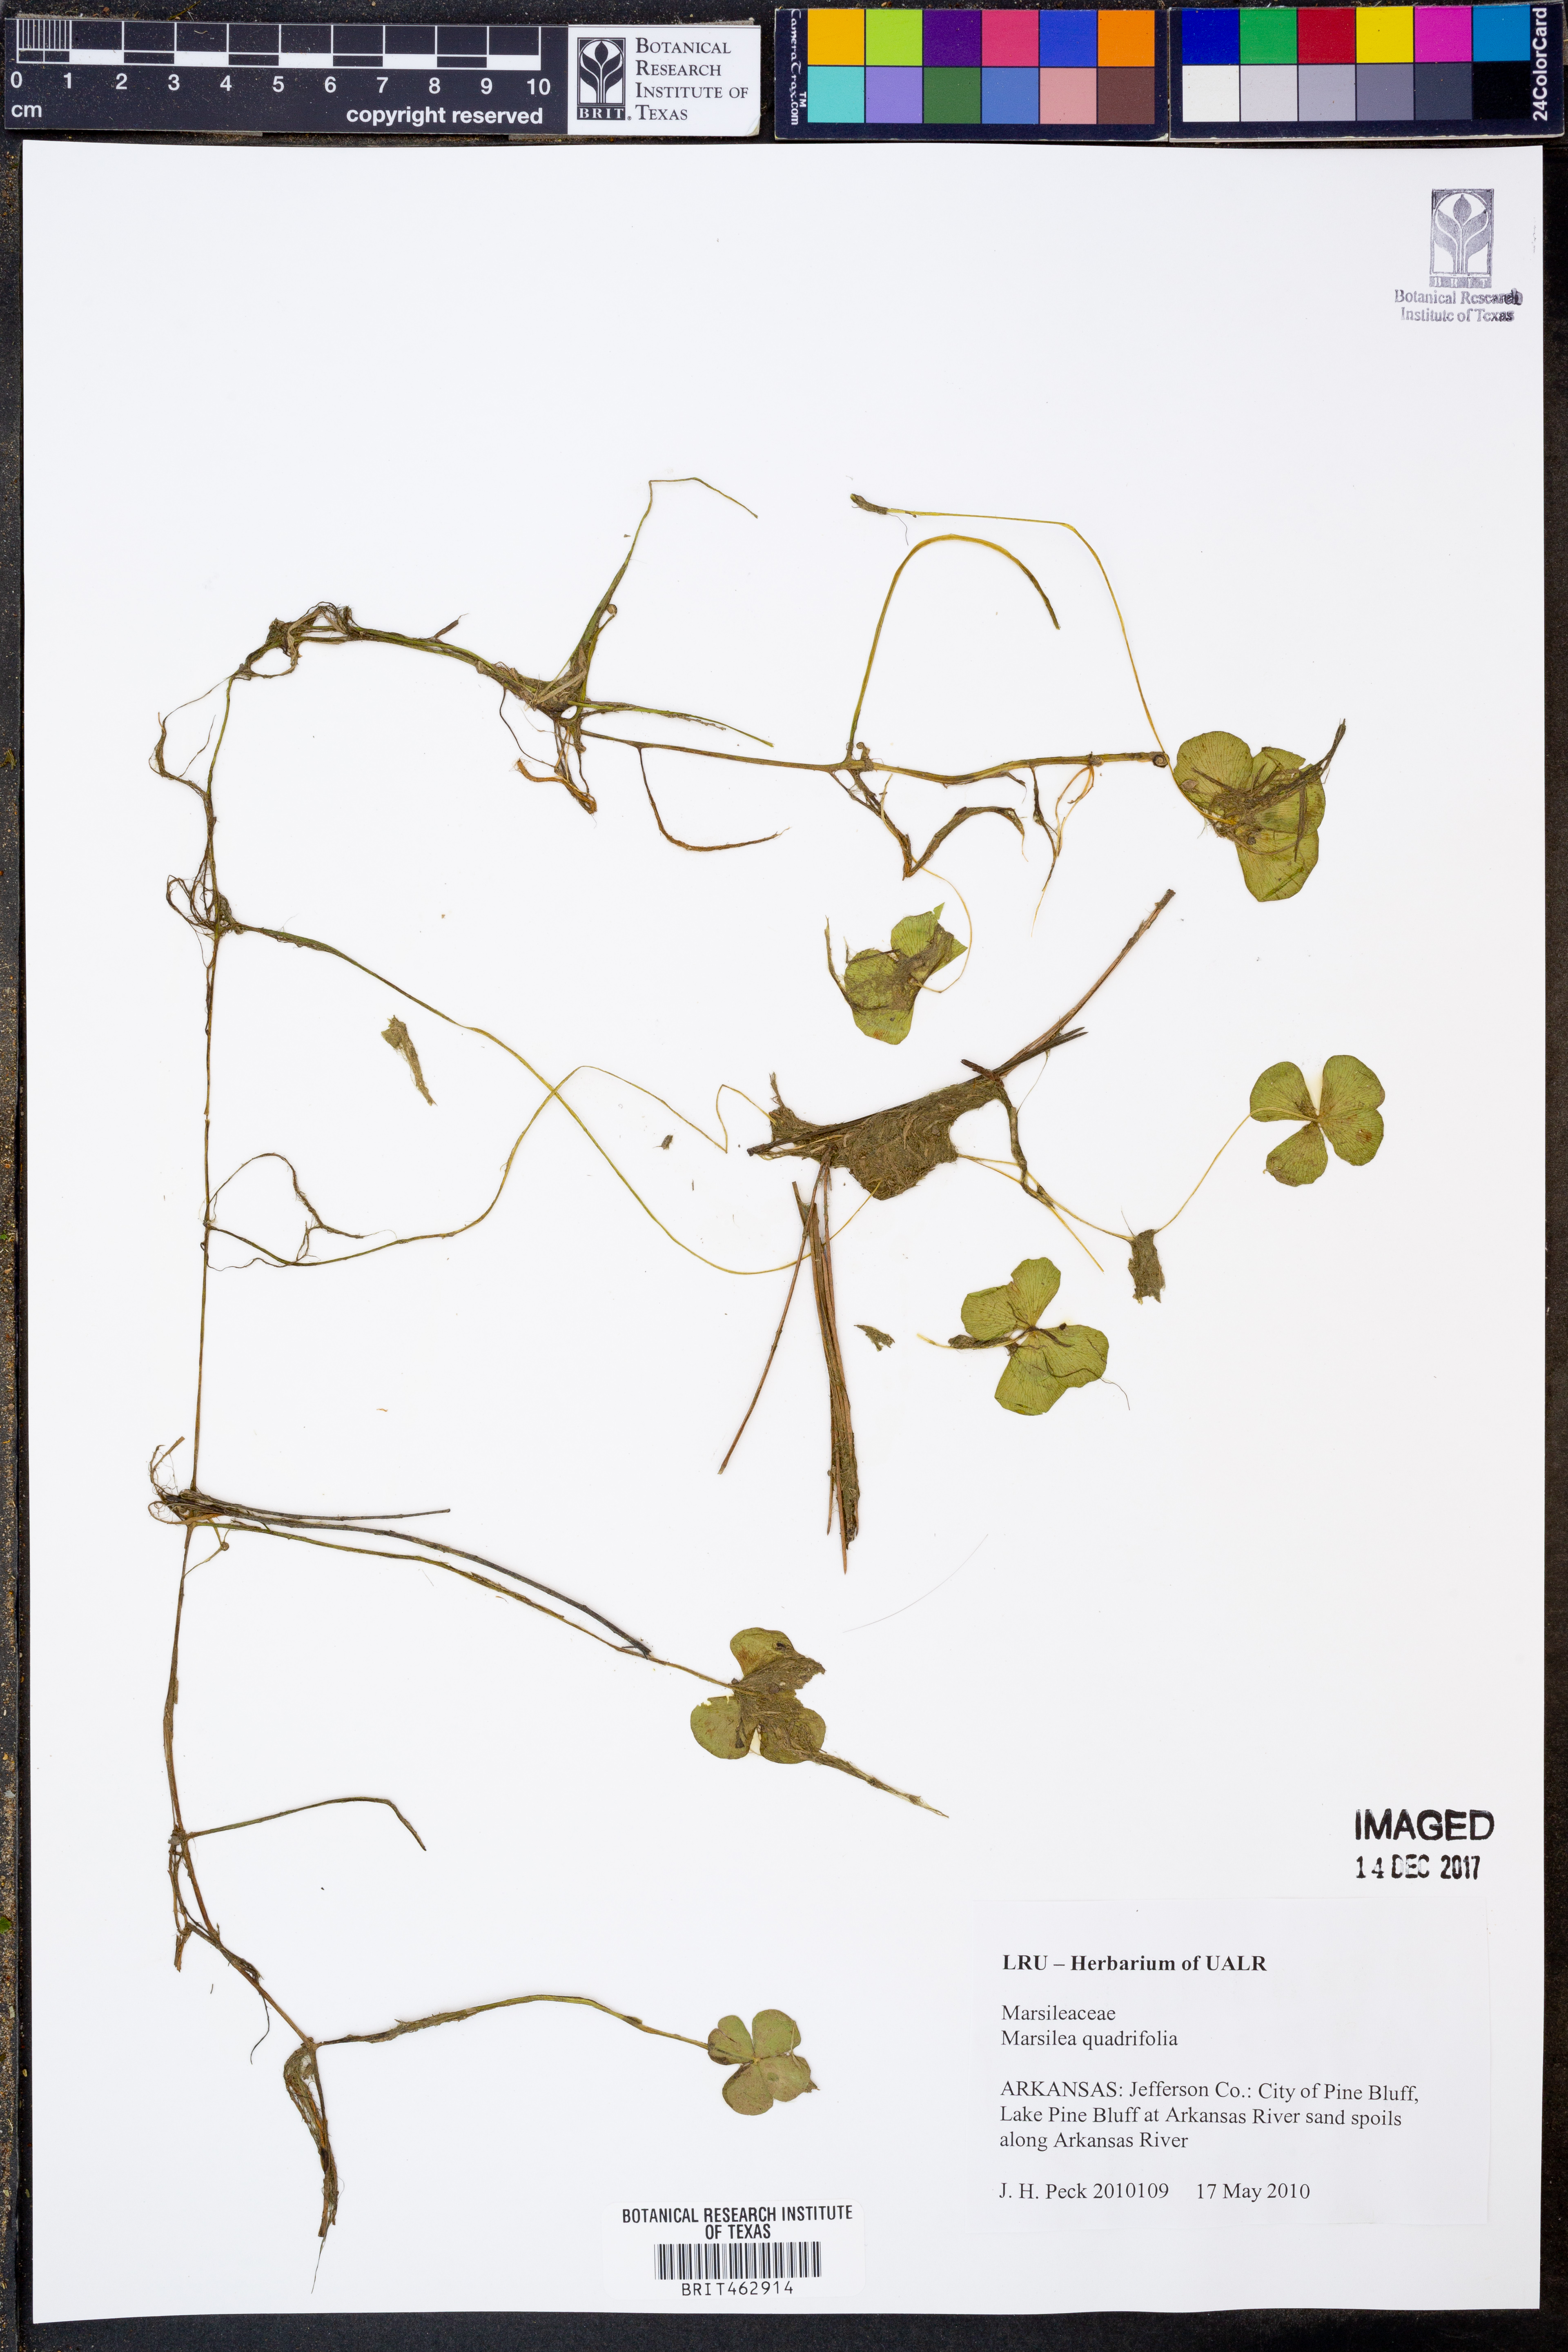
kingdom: Plantae
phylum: Tracheophyta
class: Polypodiopsida
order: Salviniales
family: Marsileaceae
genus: Marsilea
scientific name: Marsilea quadrifolia
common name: Water shamrock
